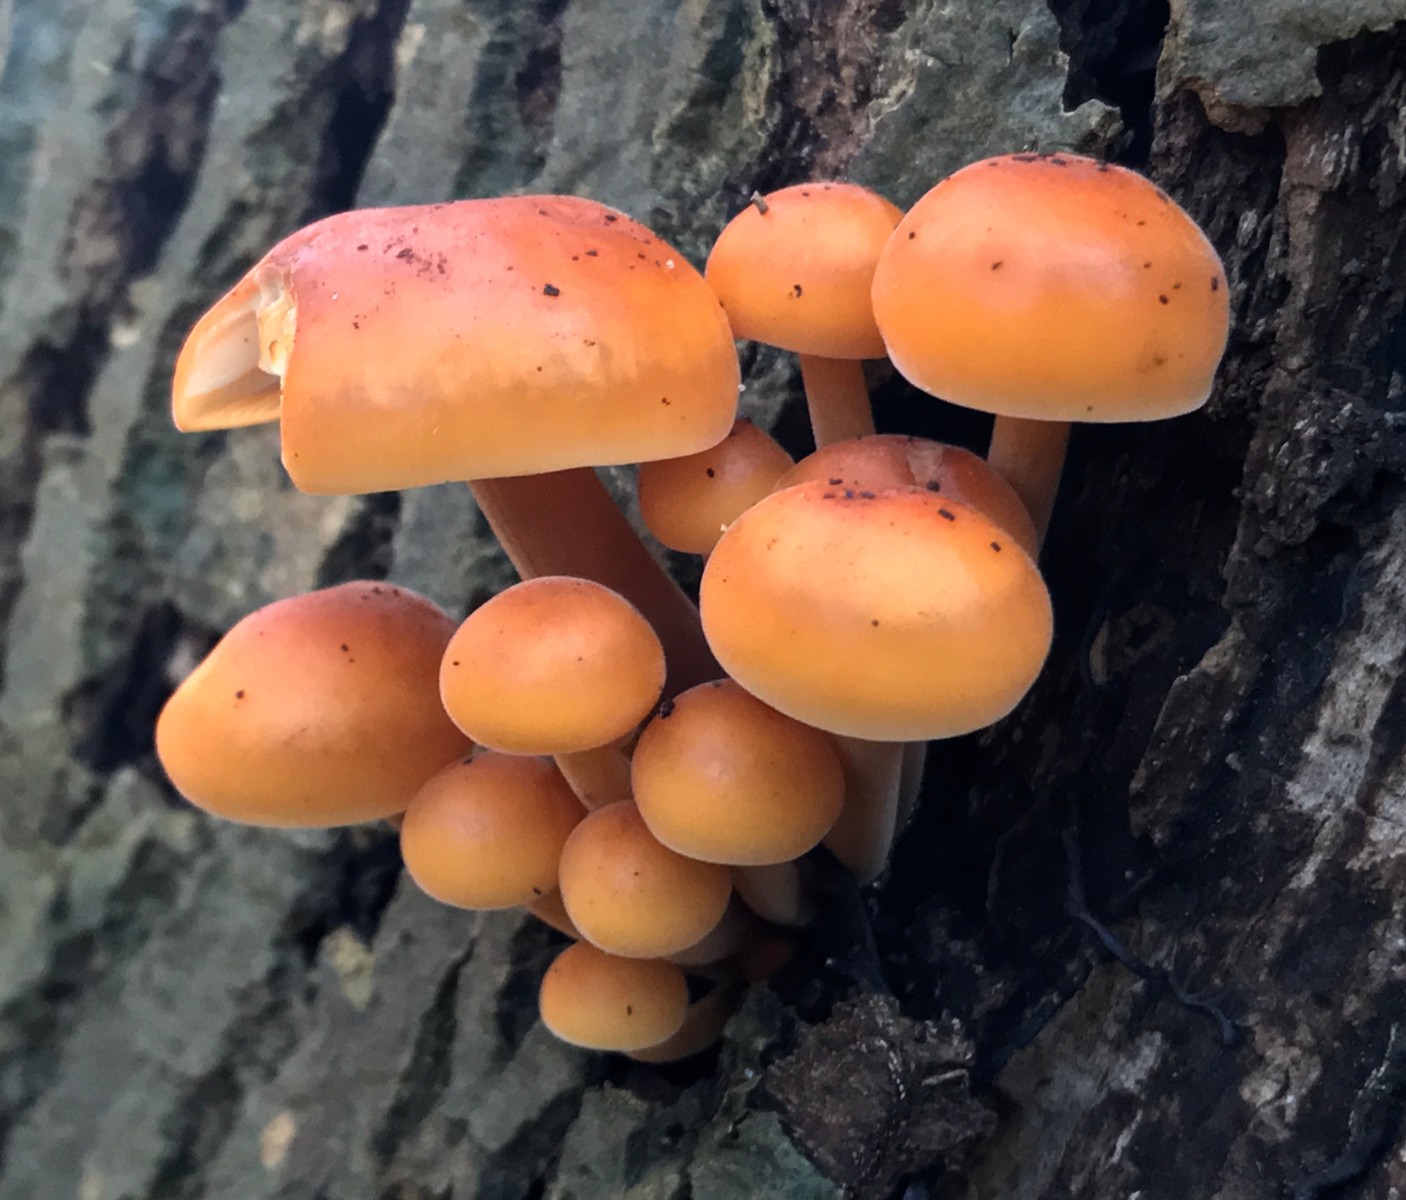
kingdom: Fungi
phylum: Basidiomycota
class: Agaricomycetes
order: Agaricales
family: Physalacriaceae
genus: Flammulina
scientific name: Flammulina
